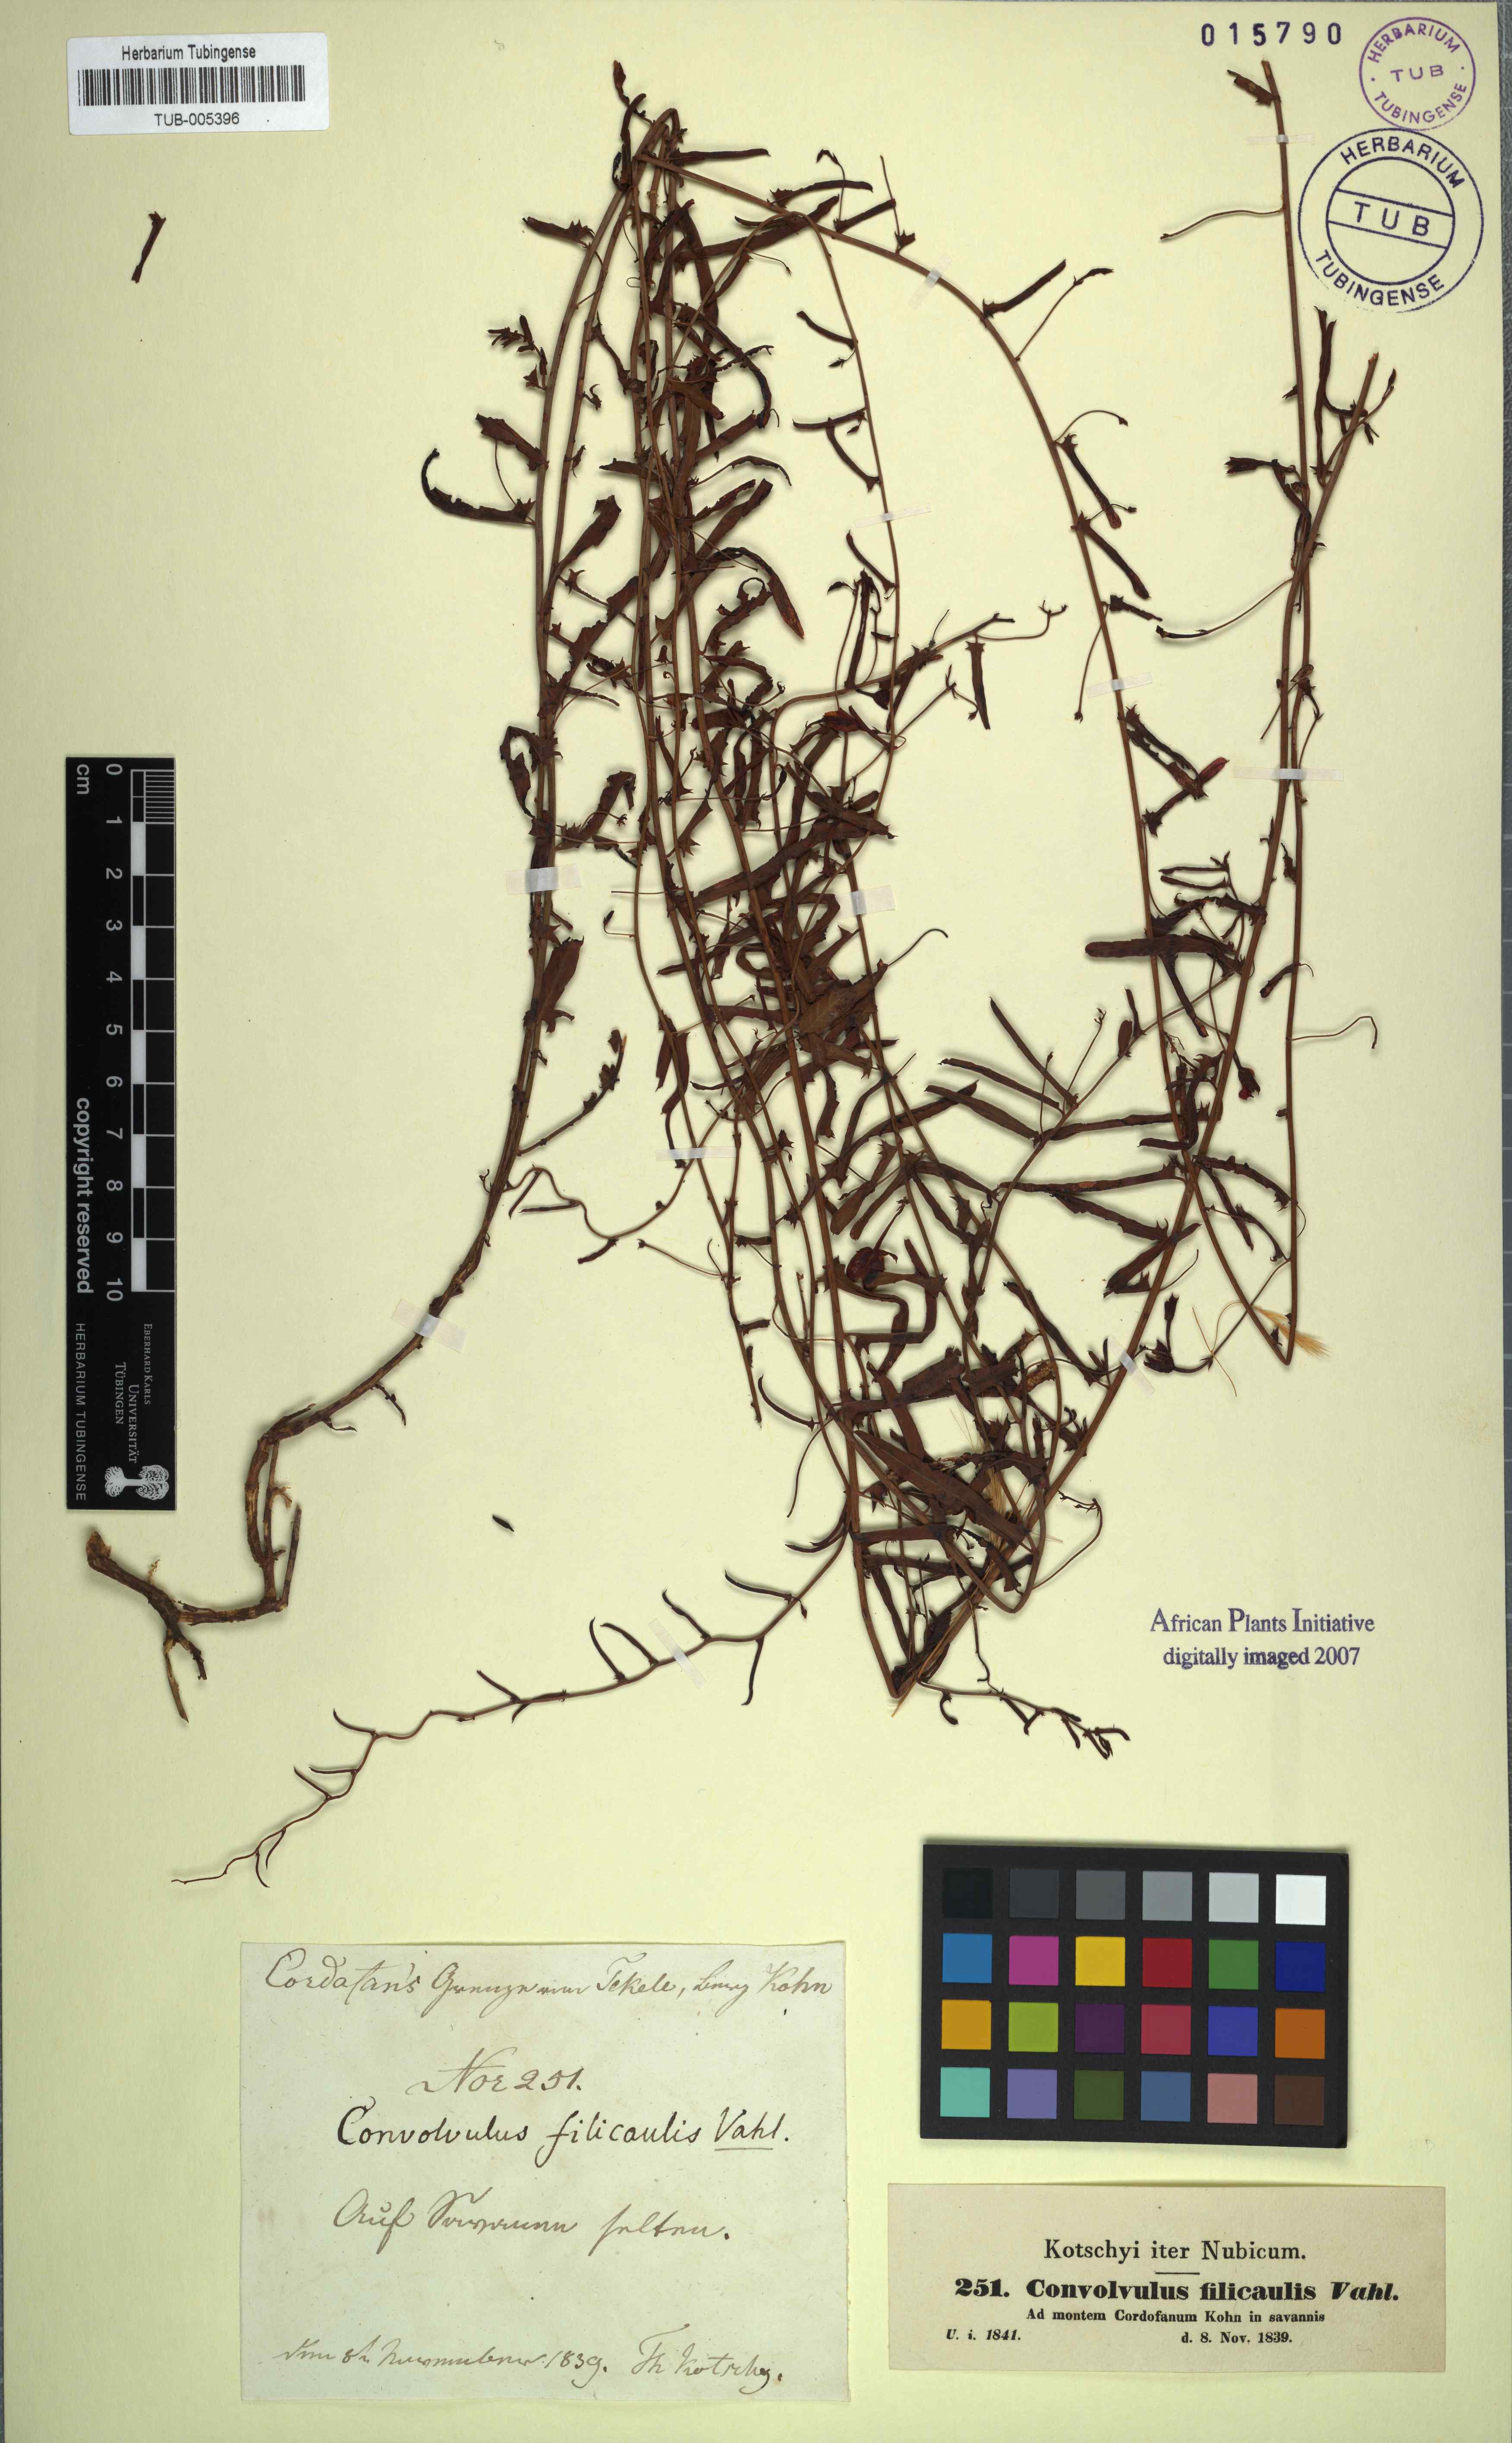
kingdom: Plantae
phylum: Tracheophyta
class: Magnoliopsida
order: Solanales
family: Convolvulaceae
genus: Xenostegia
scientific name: Xenostegia tridentata
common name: African morningvine
